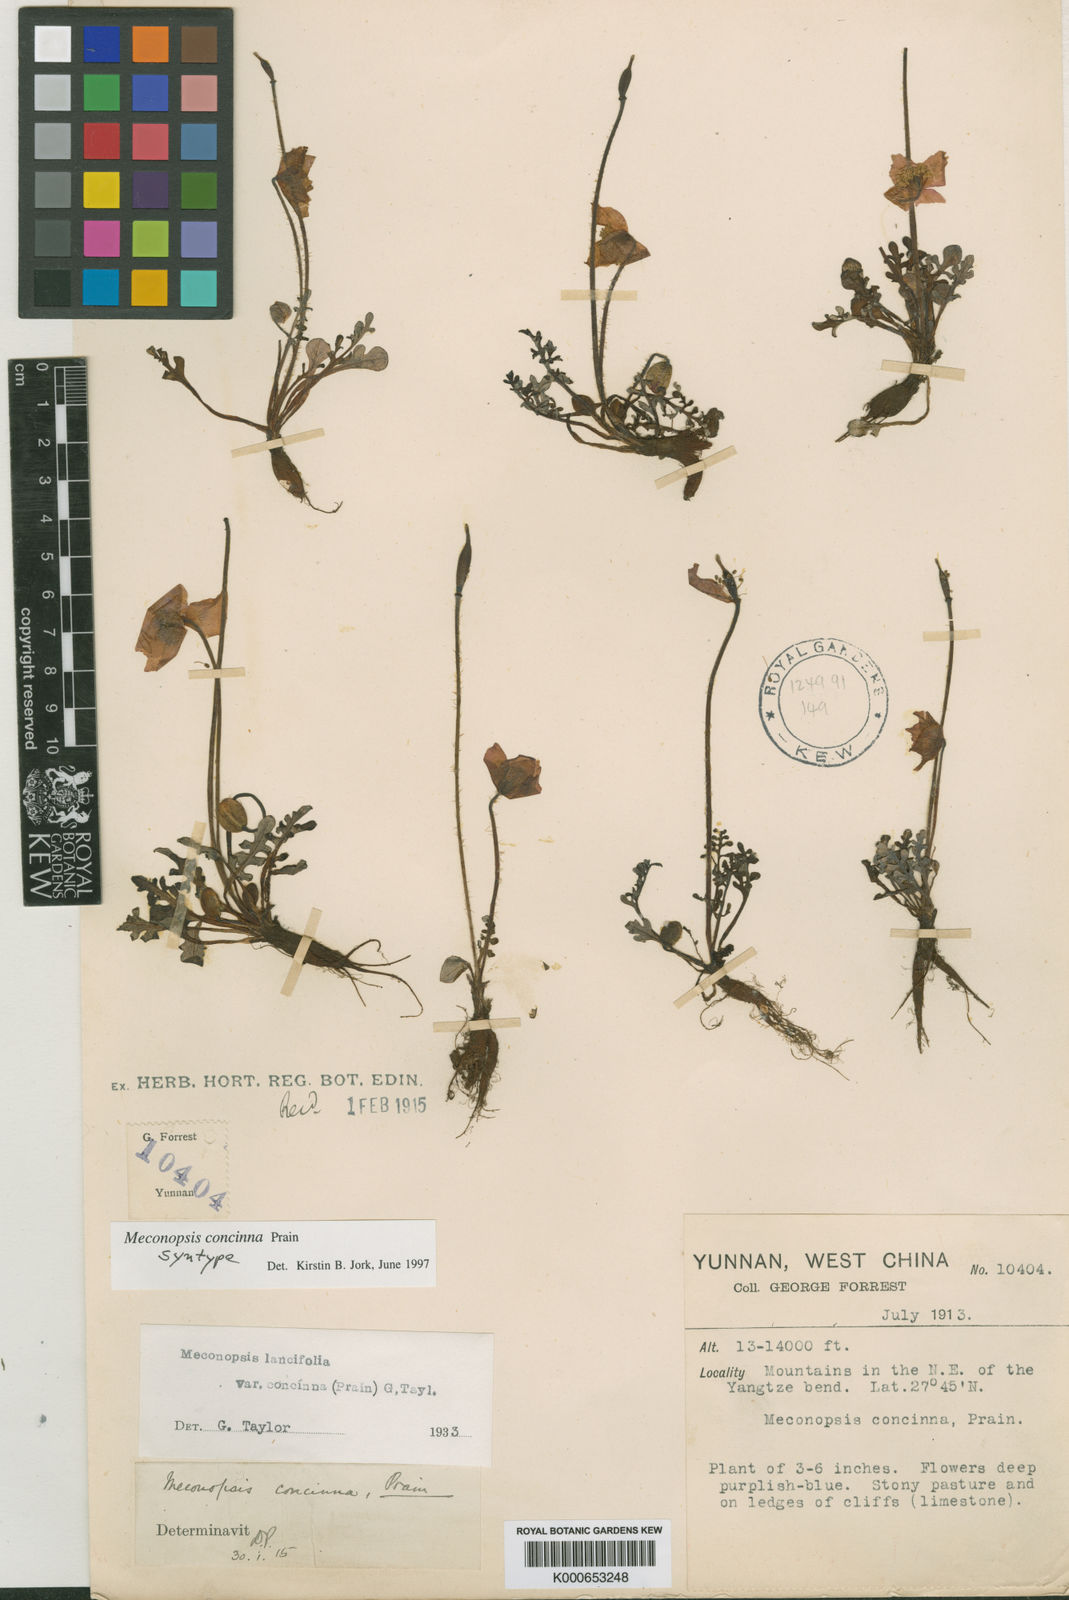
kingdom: Plantae
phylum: Tracheophyta
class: Magnoliopsida
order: Ranunculales
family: Papaveraceae
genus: Meconopsis
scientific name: Meconopsis lancifolia
